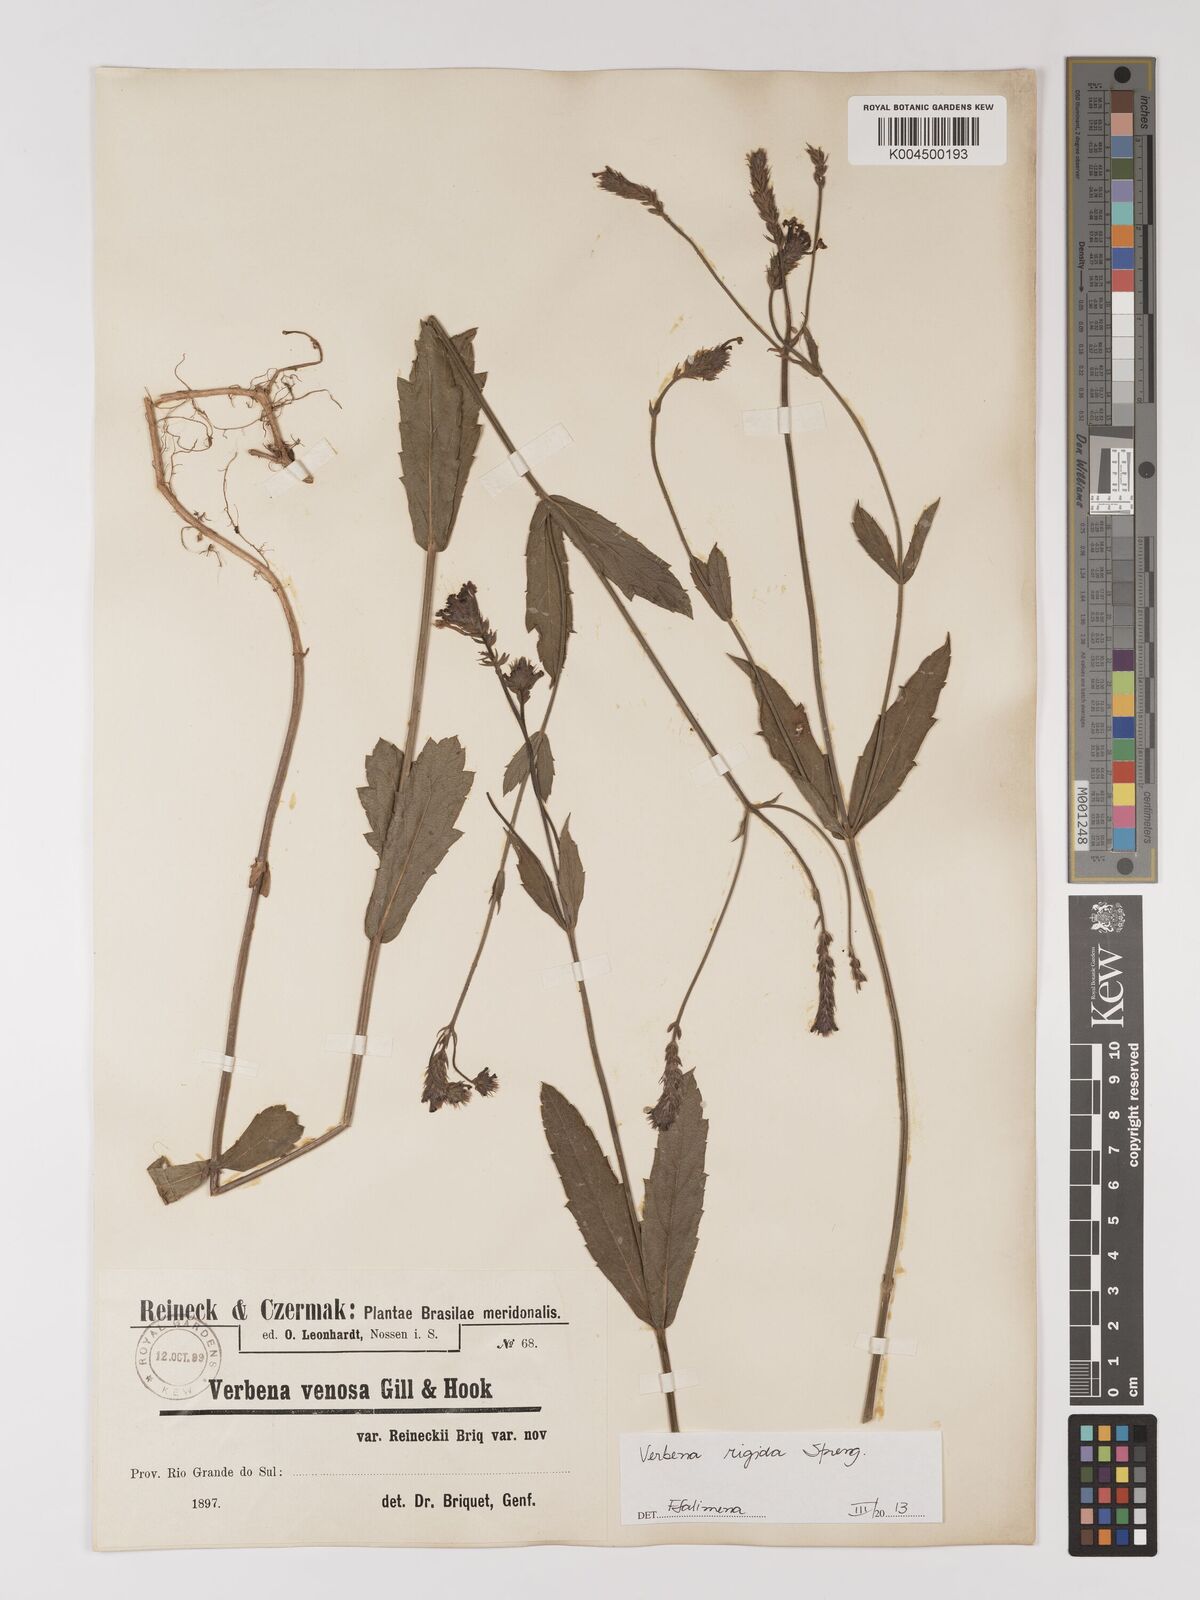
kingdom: Plantae
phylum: Tracheophyta
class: Magnoliopsida
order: Lamiales
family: Verbenaceae
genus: Verbena
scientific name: Verbena rigida
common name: Slender vervain
